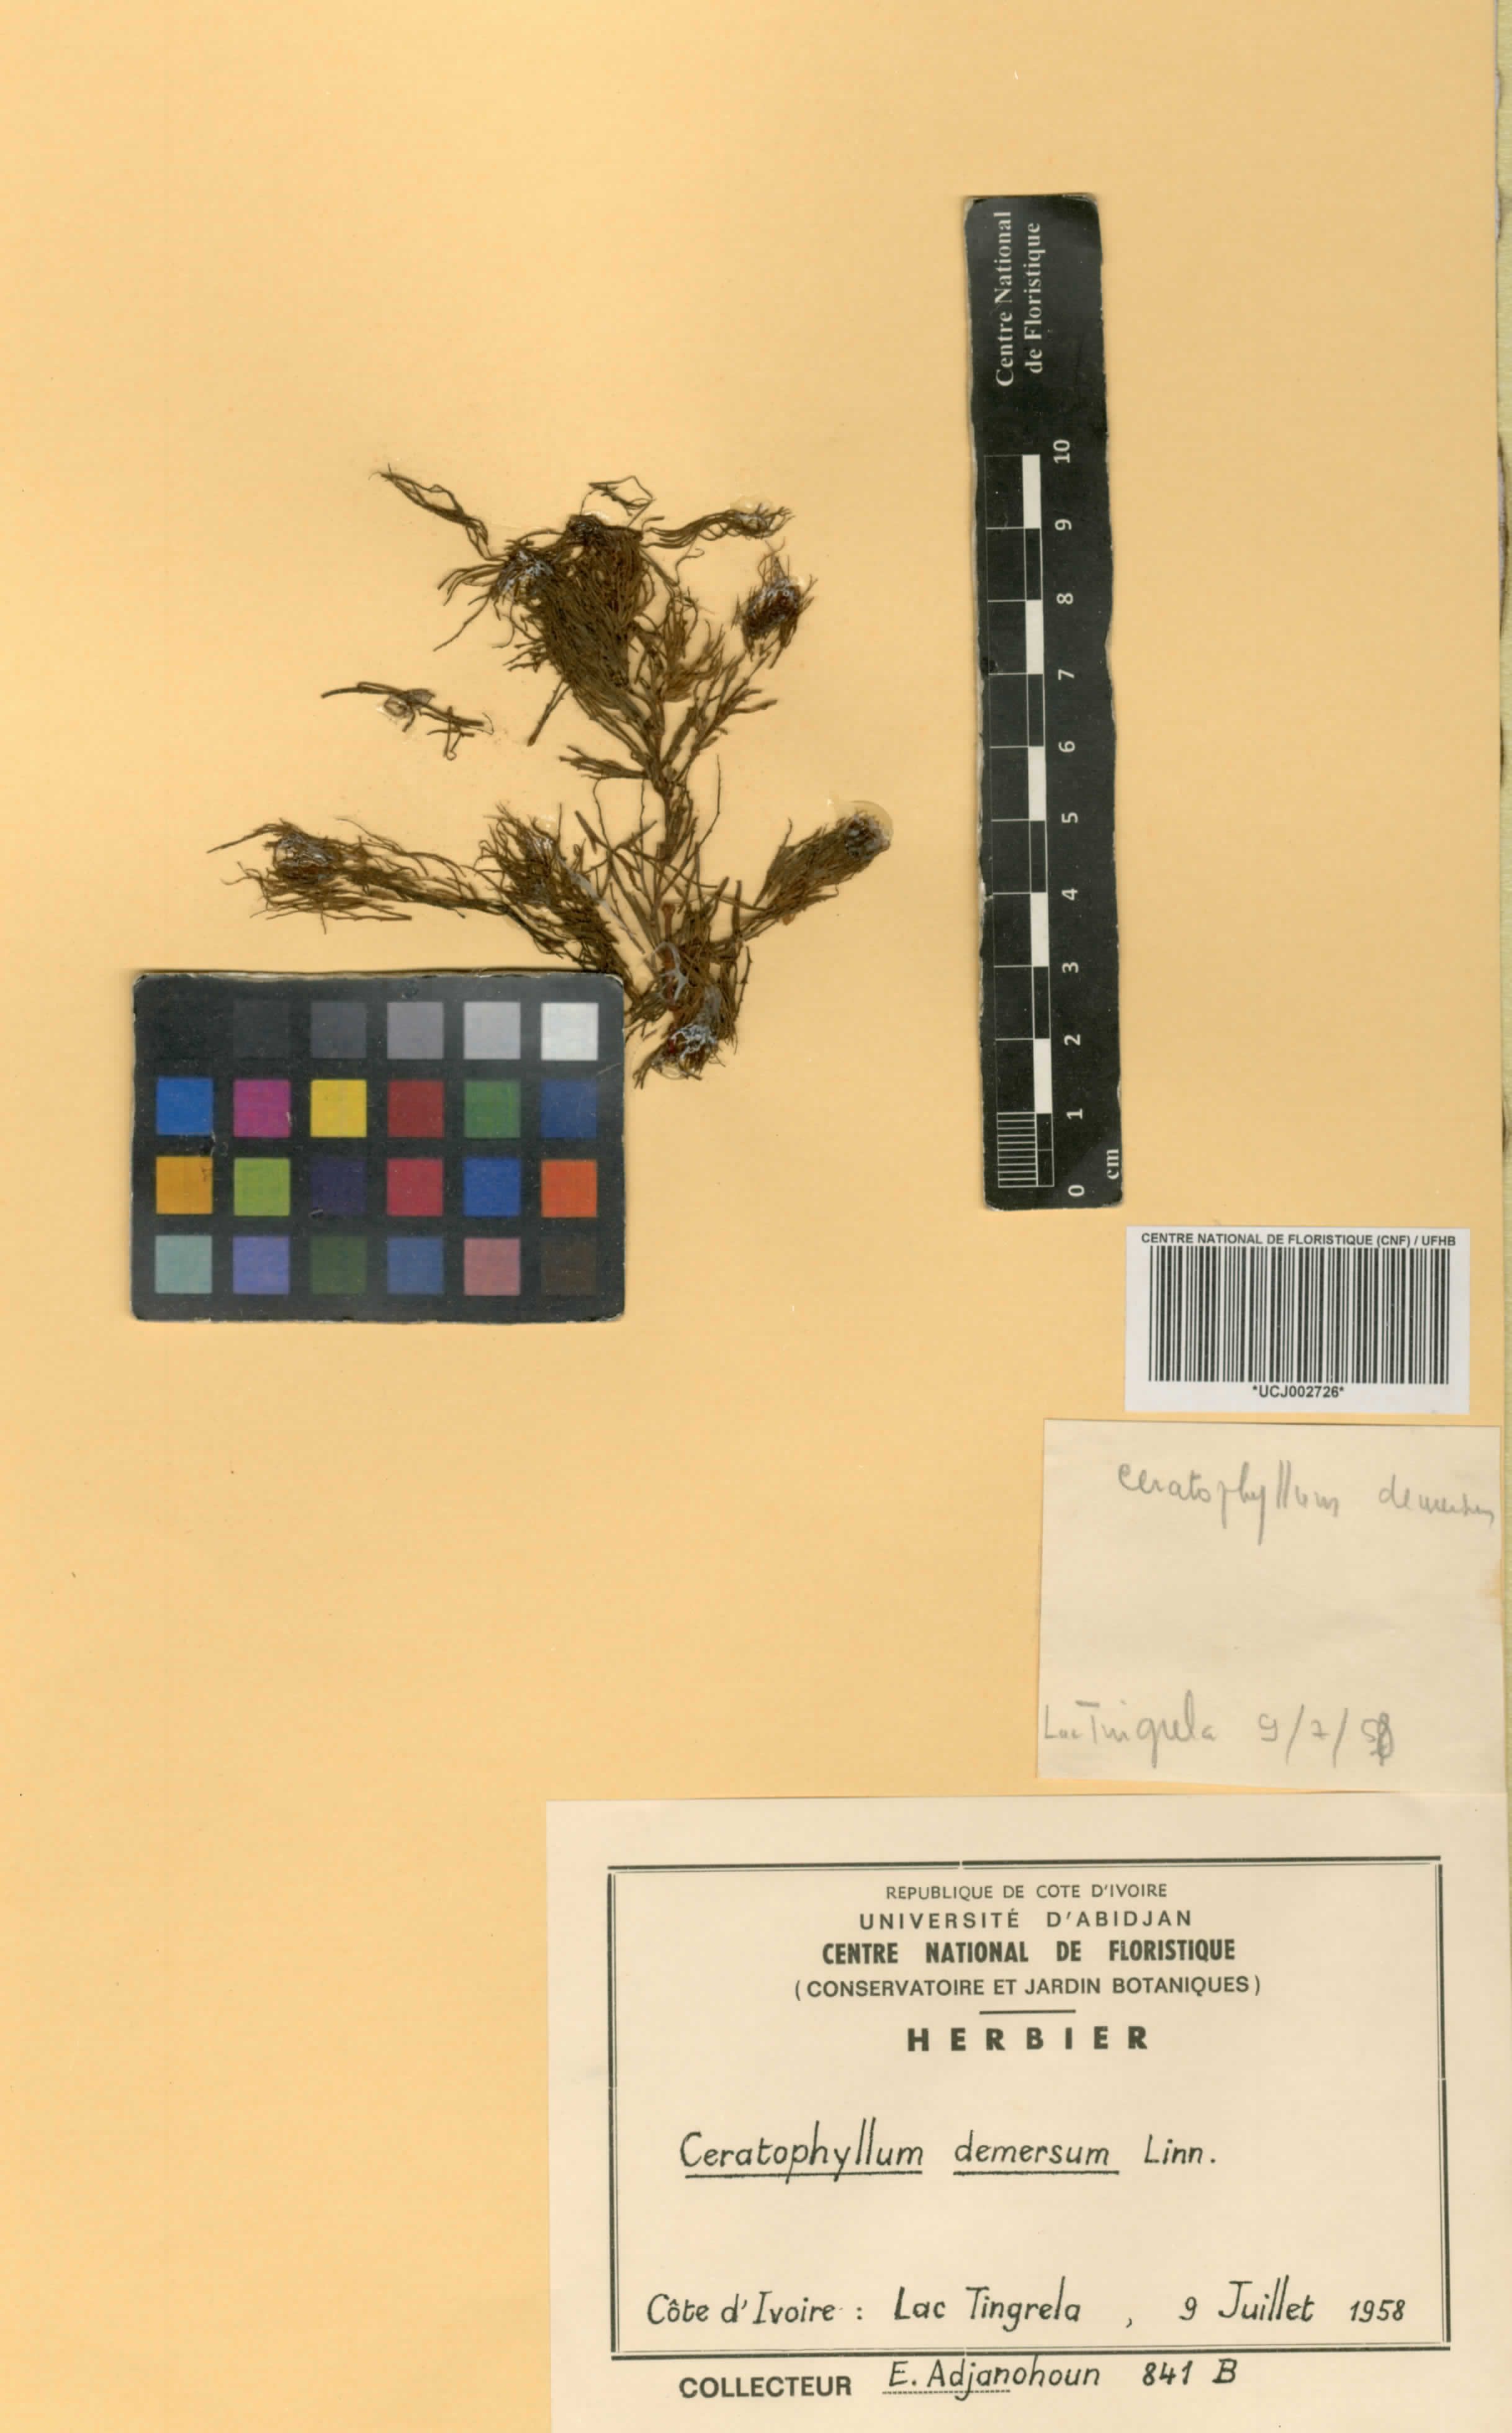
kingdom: Plantae
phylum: Tracheophyta
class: Magnoliopsida
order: Ceratophyllales
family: Ceratophyllaceae
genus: Ceratophyllum
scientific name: Ceratophyllum demersum
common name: Rigid hornwort
